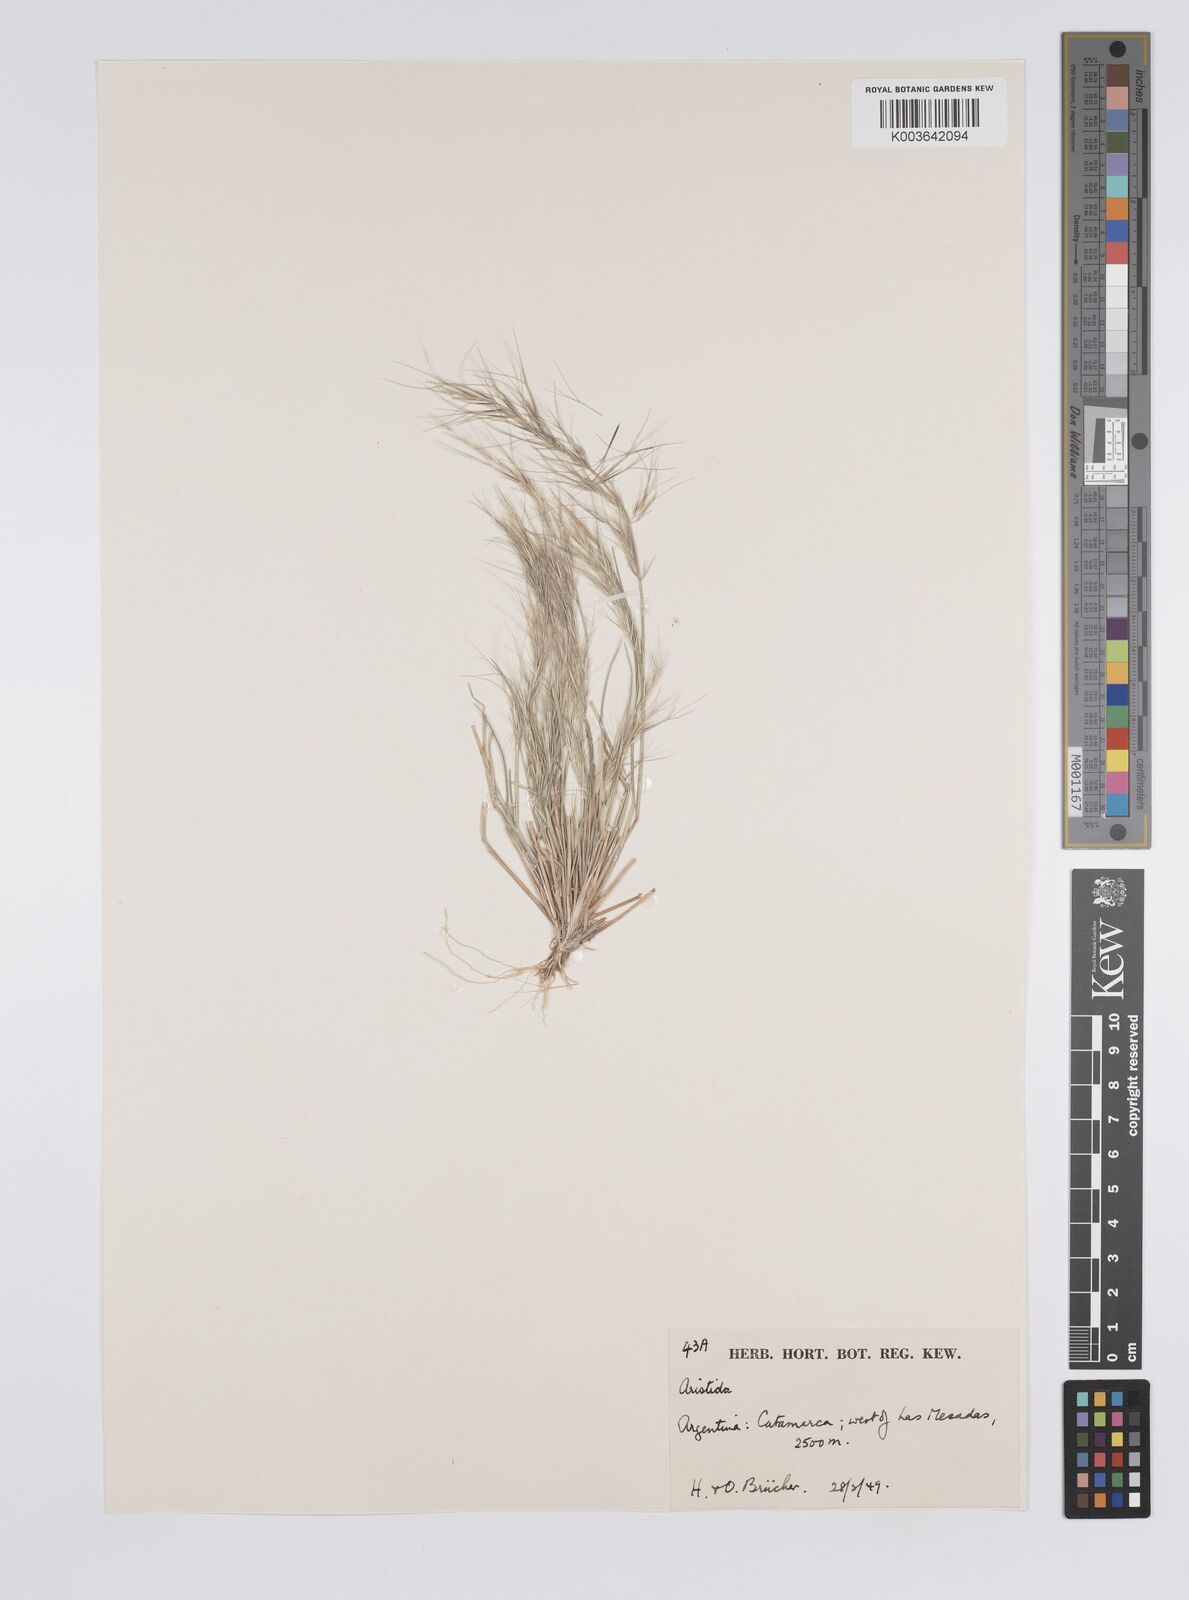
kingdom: Plantae
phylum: Tracheophyta
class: Liliopsida
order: Poales
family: Poaceae
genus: Aristida
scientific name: Aristida adscensionis
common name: Sixweeks threeawn
